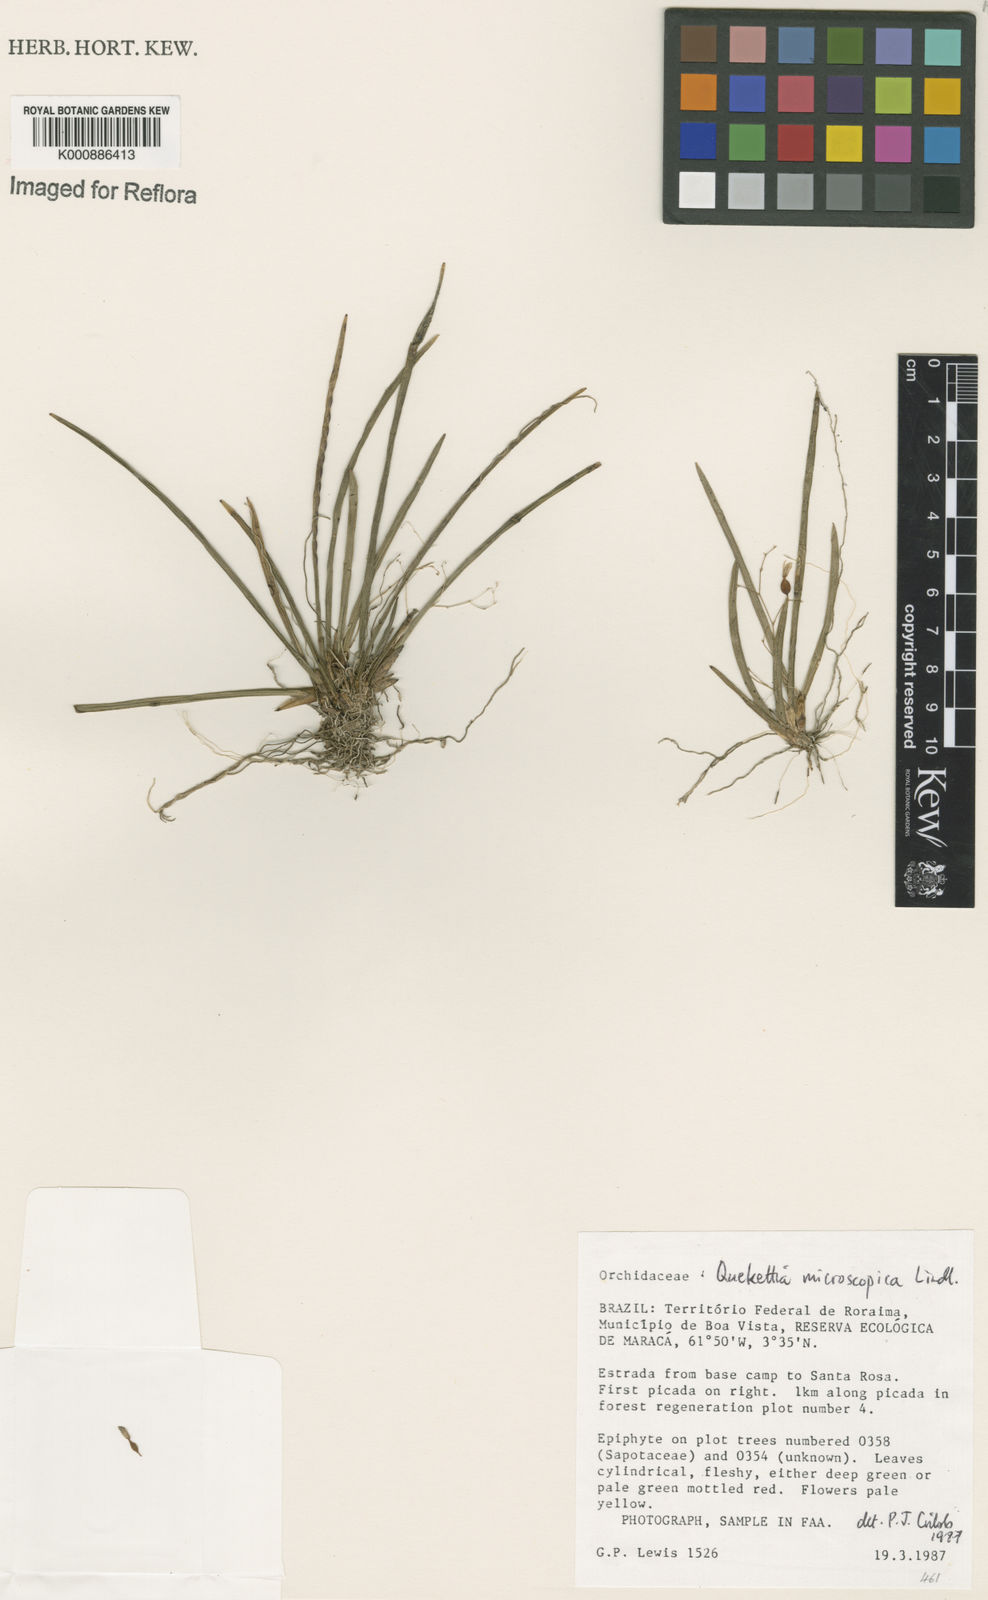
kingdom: Plantae
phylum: Tracheophyta
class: Liliopsida
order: Asparagales
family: Orchidaceae
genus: Quekettia
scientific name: Quekettia microscopica
